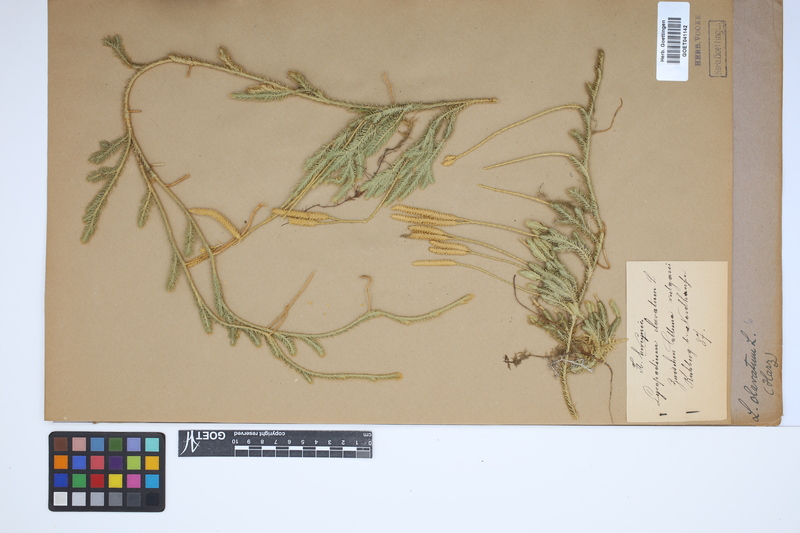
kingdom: Plantae
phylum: Tracheophyta
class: Lycopodiopsida
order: Lycopodiales
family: Lycopodiaceae
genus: Lycopodium
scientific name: Lycopodium clavatum
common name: Stag's-horn clubmoss
